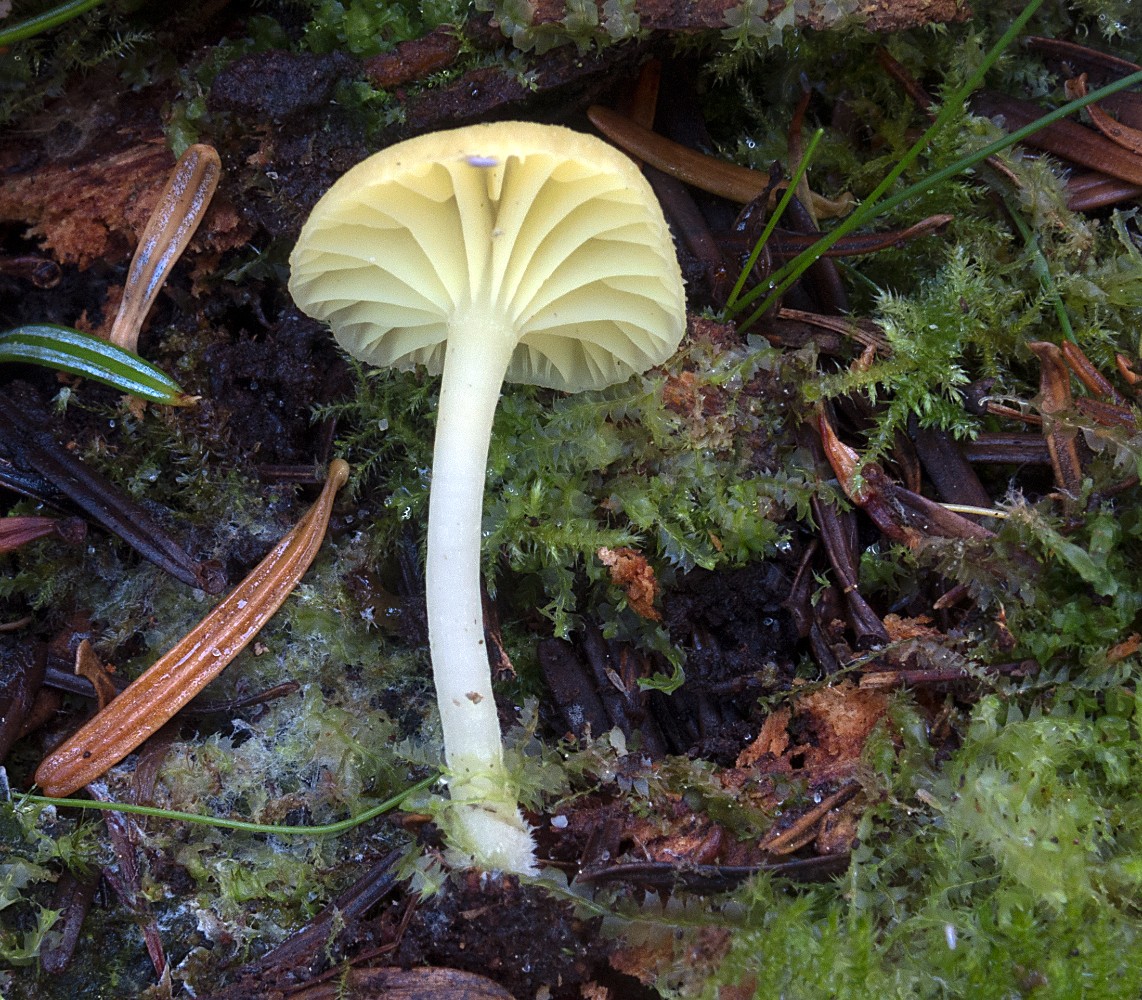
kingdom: Fungi
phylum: Basidiomycota
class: Agaricomycetes
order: Agaricales
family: Hygrophoraceae
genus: Chrysomphalina
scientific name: Chrysomphalina grossula
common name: stød-gyldenblad
